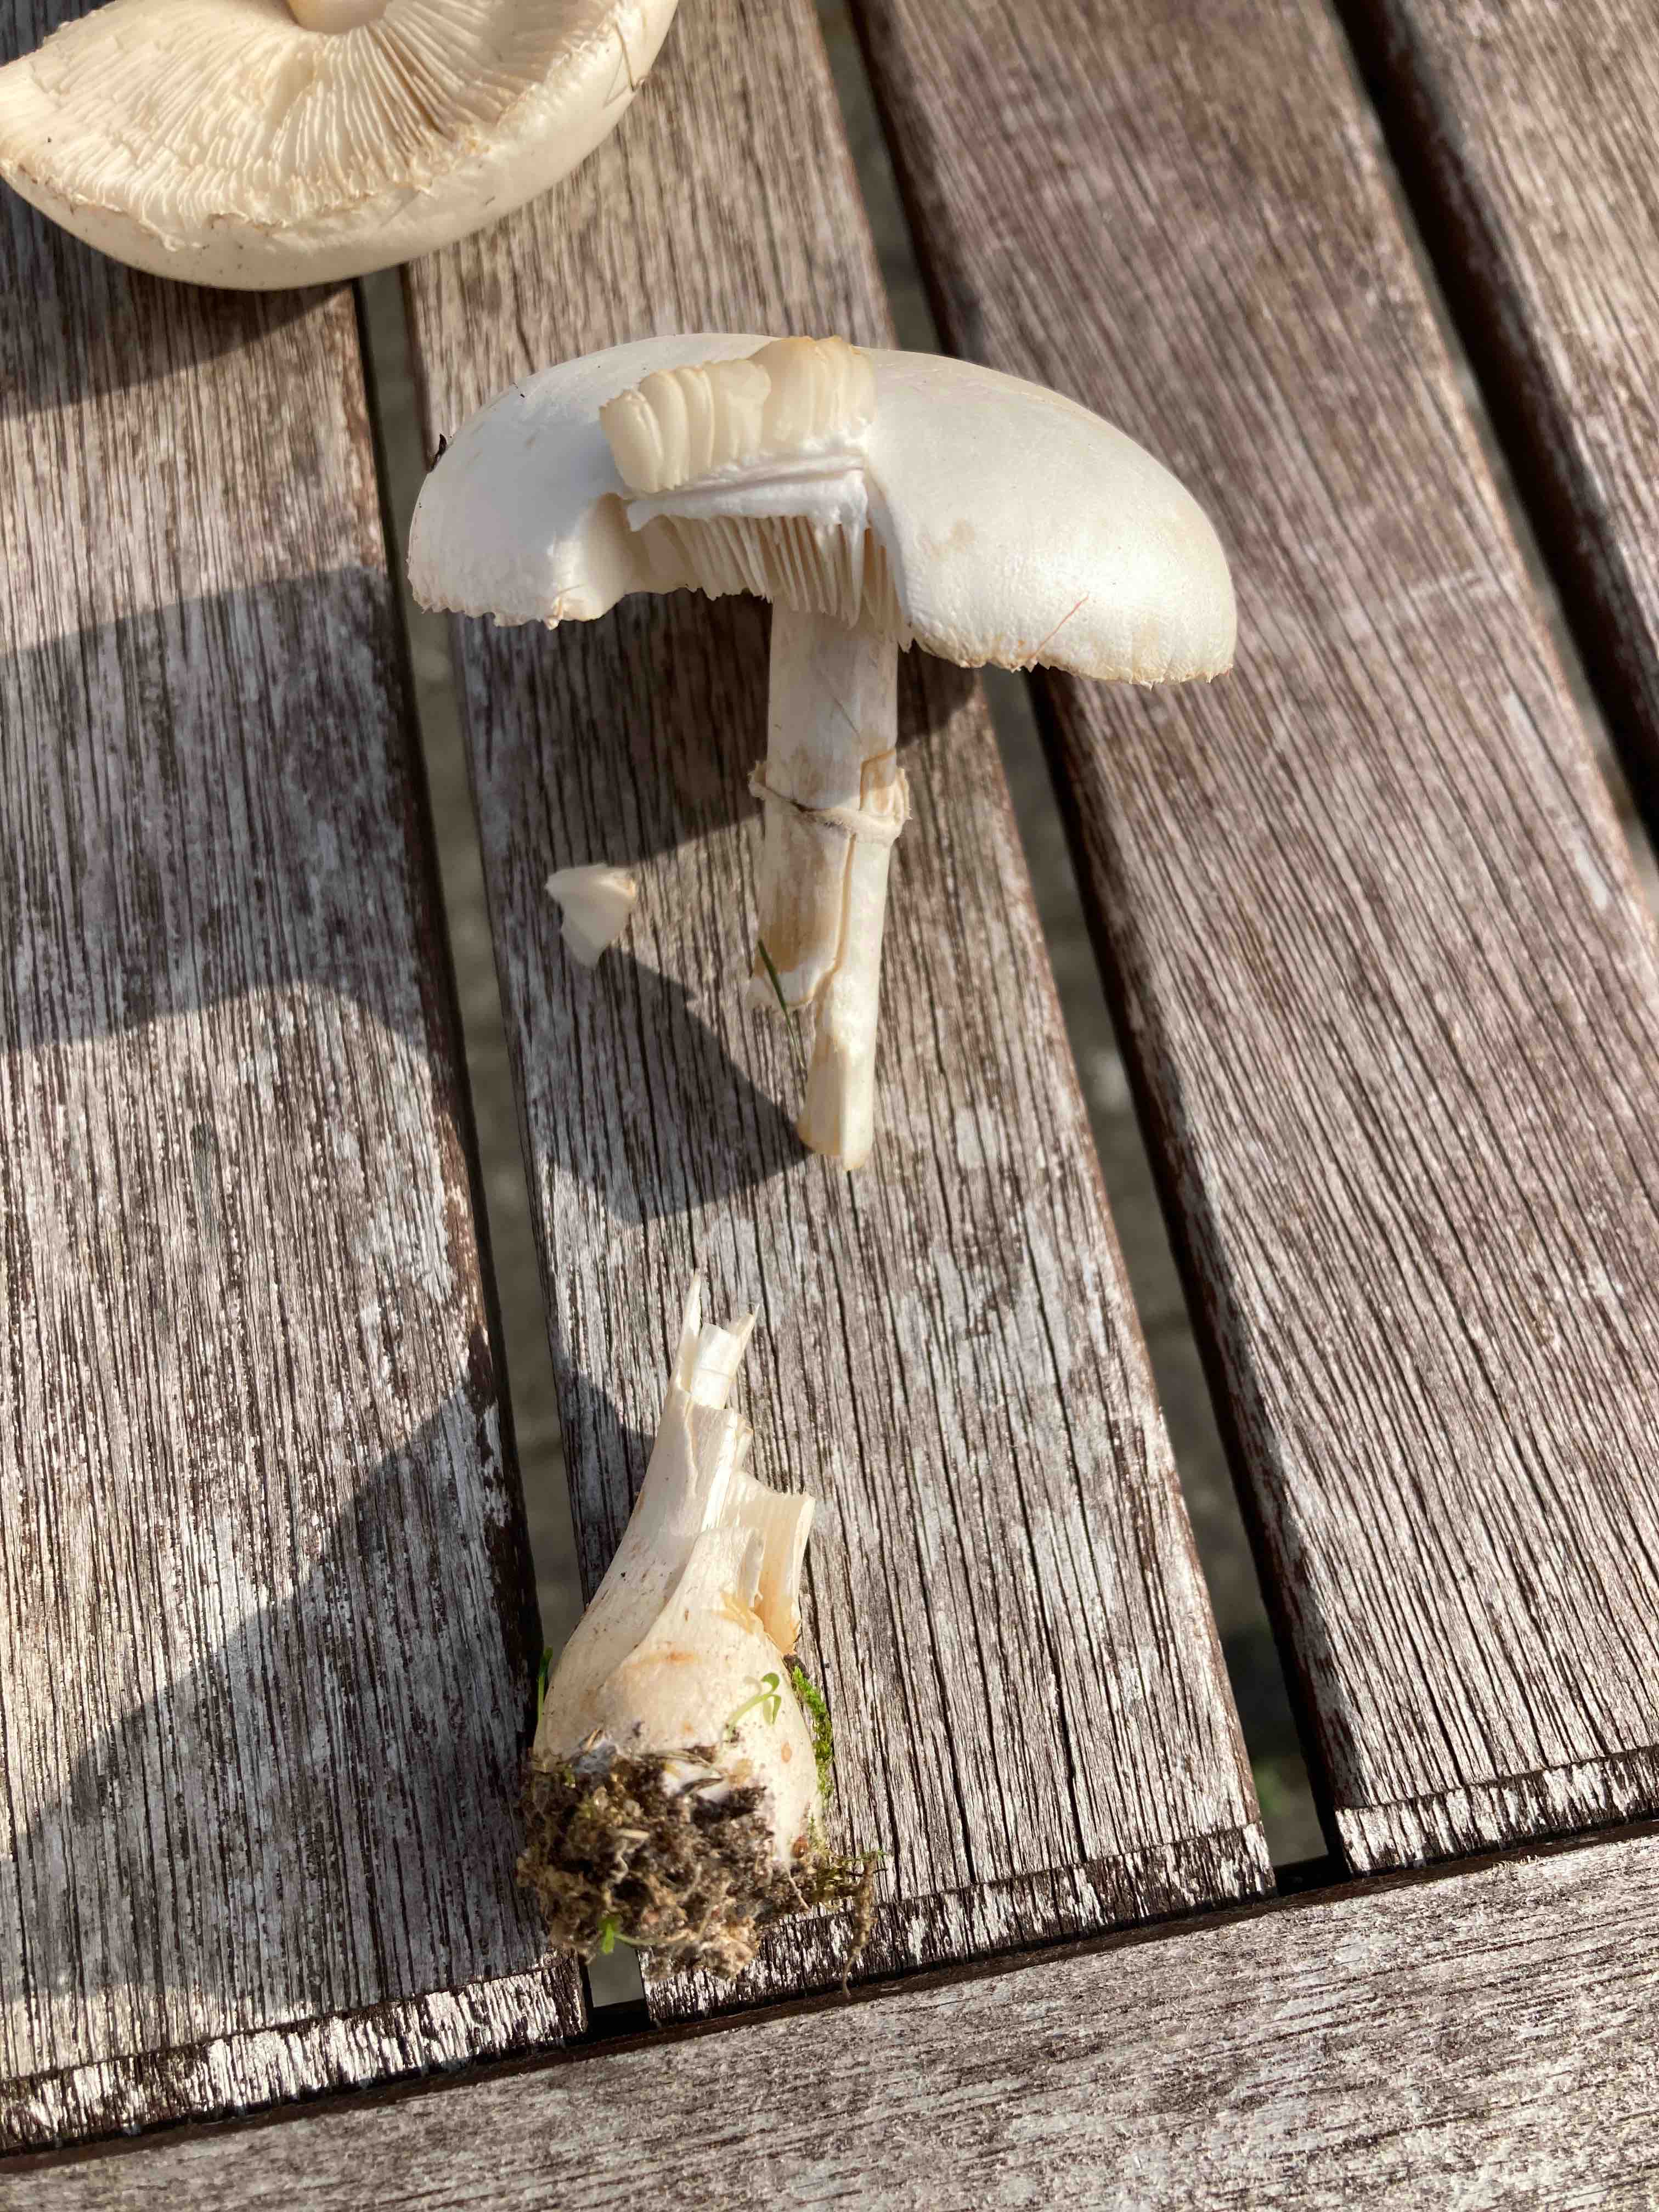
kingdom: Fungi
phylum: Basidiomycota
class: Agaricomycetes
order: Agaricales
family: Agaricaceae
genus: Agaricus
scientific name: Agaricus
